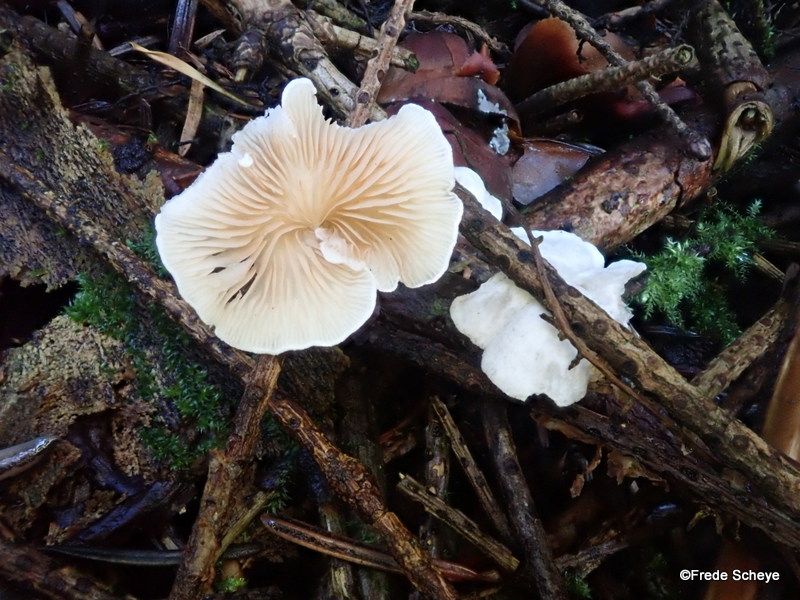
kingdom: Fungi
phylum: Basidiomycota
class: Agaricomycetes
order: Agaricales
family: Crepidotaceae
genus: Crepidotus
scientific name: Crepidotus variabilis
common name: forskelligformet muslingesvamp
